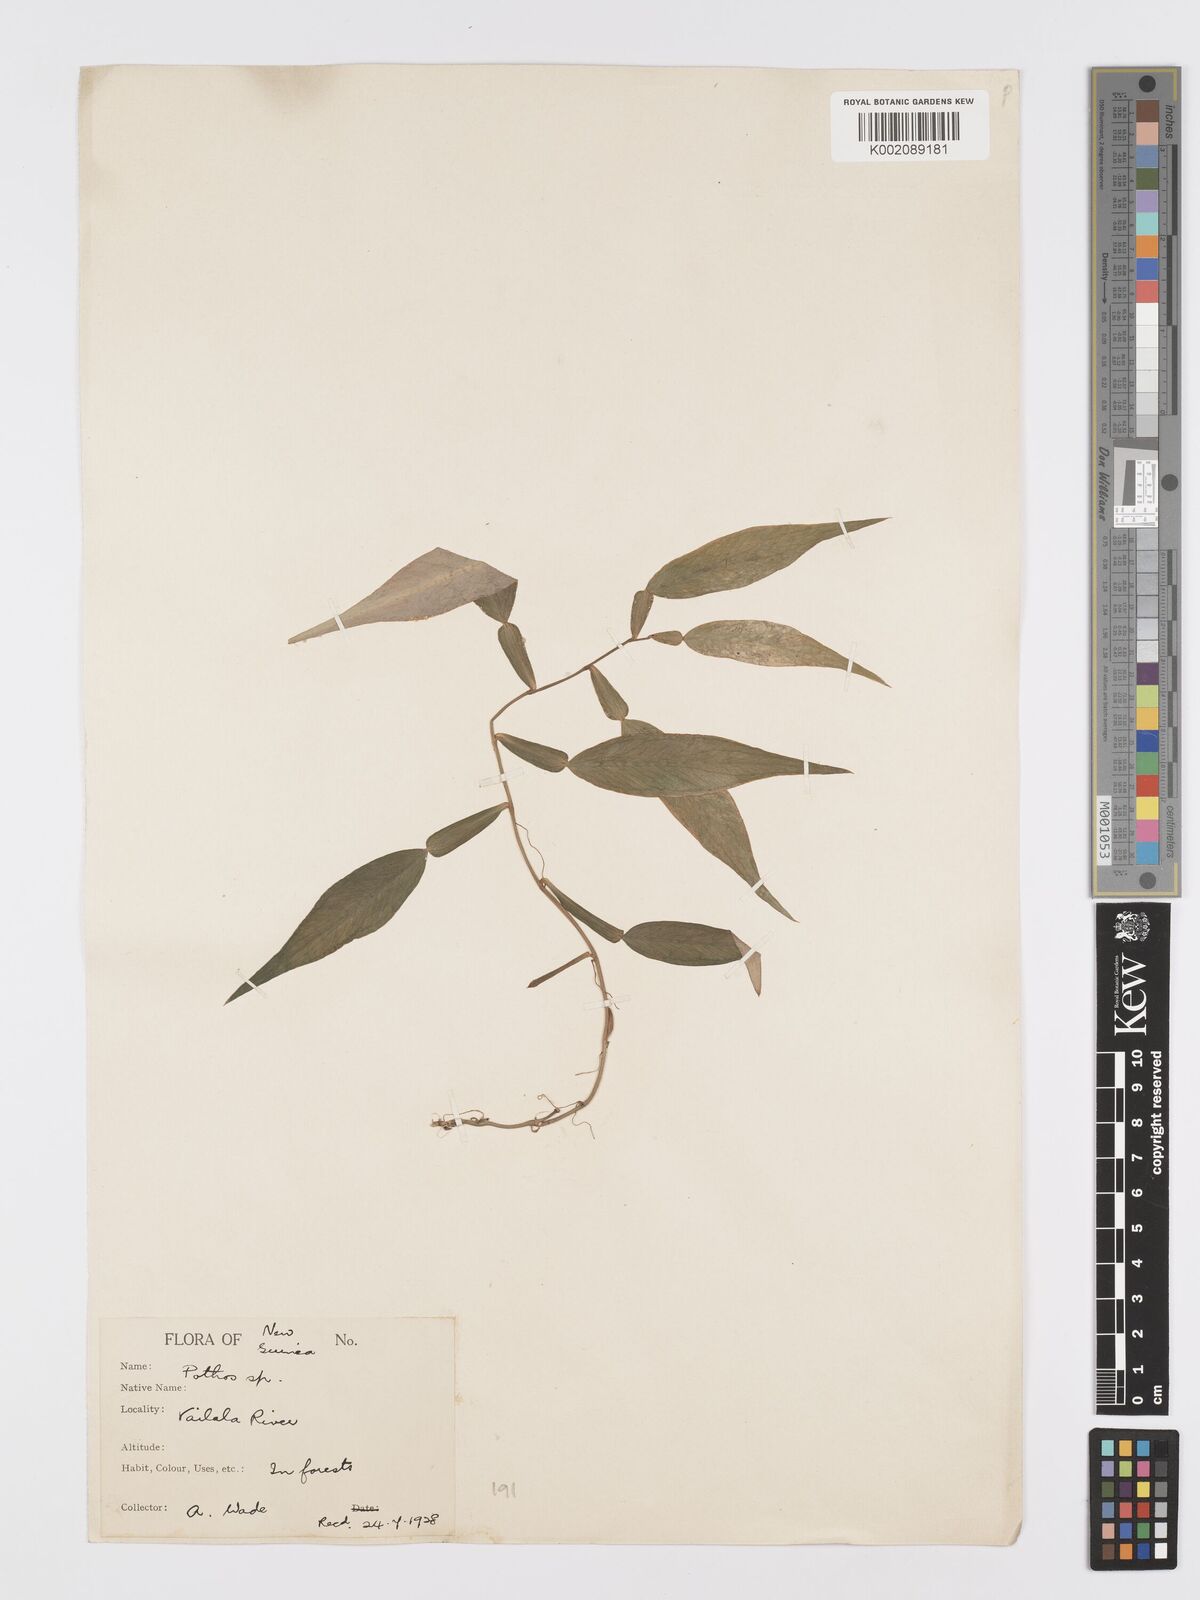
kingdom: Plantae
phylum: Tracheophyta
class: Liliopsida
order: Alismatales
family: Araceae
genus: Pothos
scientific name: Pothos
